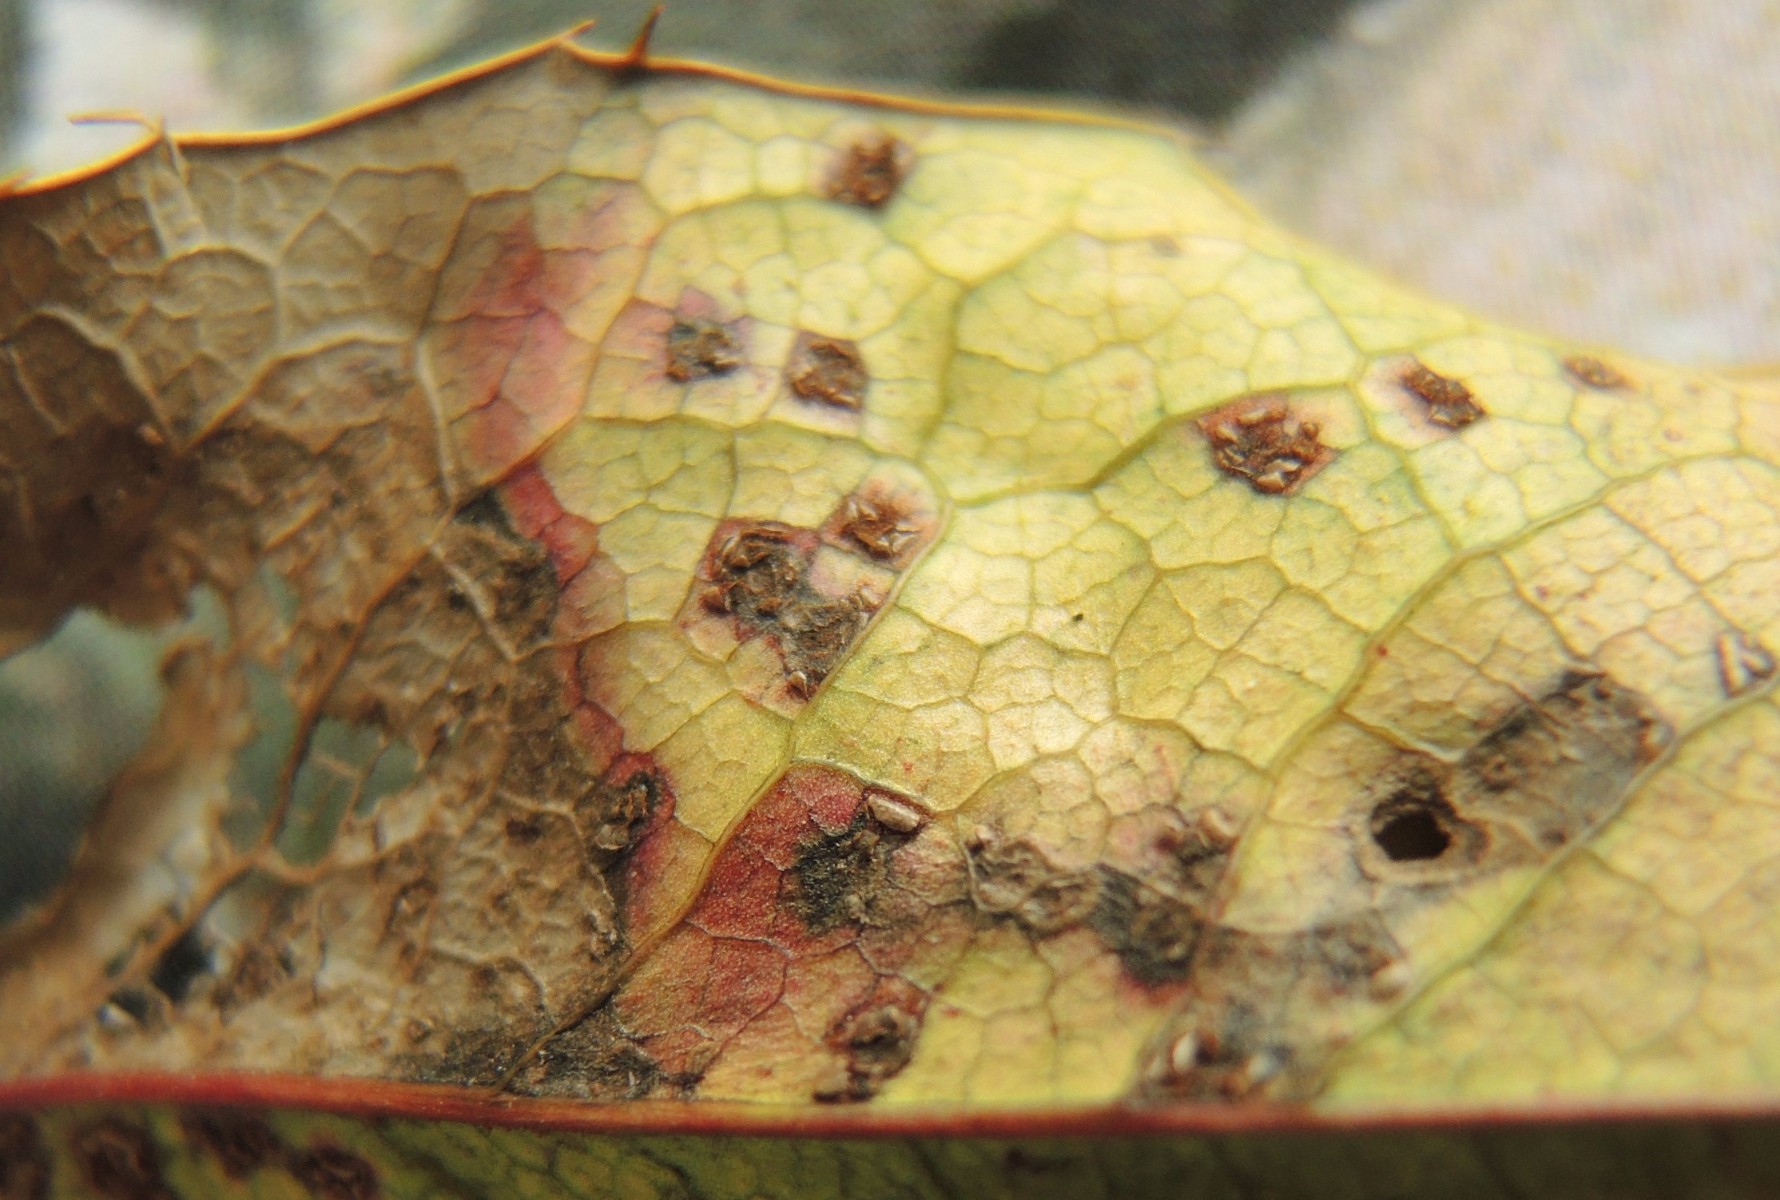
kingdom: Fungi
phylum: Basidiomycota
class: Pucciniomycetes
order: Pucciniales
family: Pucciniaceae
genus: Cumminsiella
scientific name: Cumminsiella mirabilissima
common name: mahonierust
